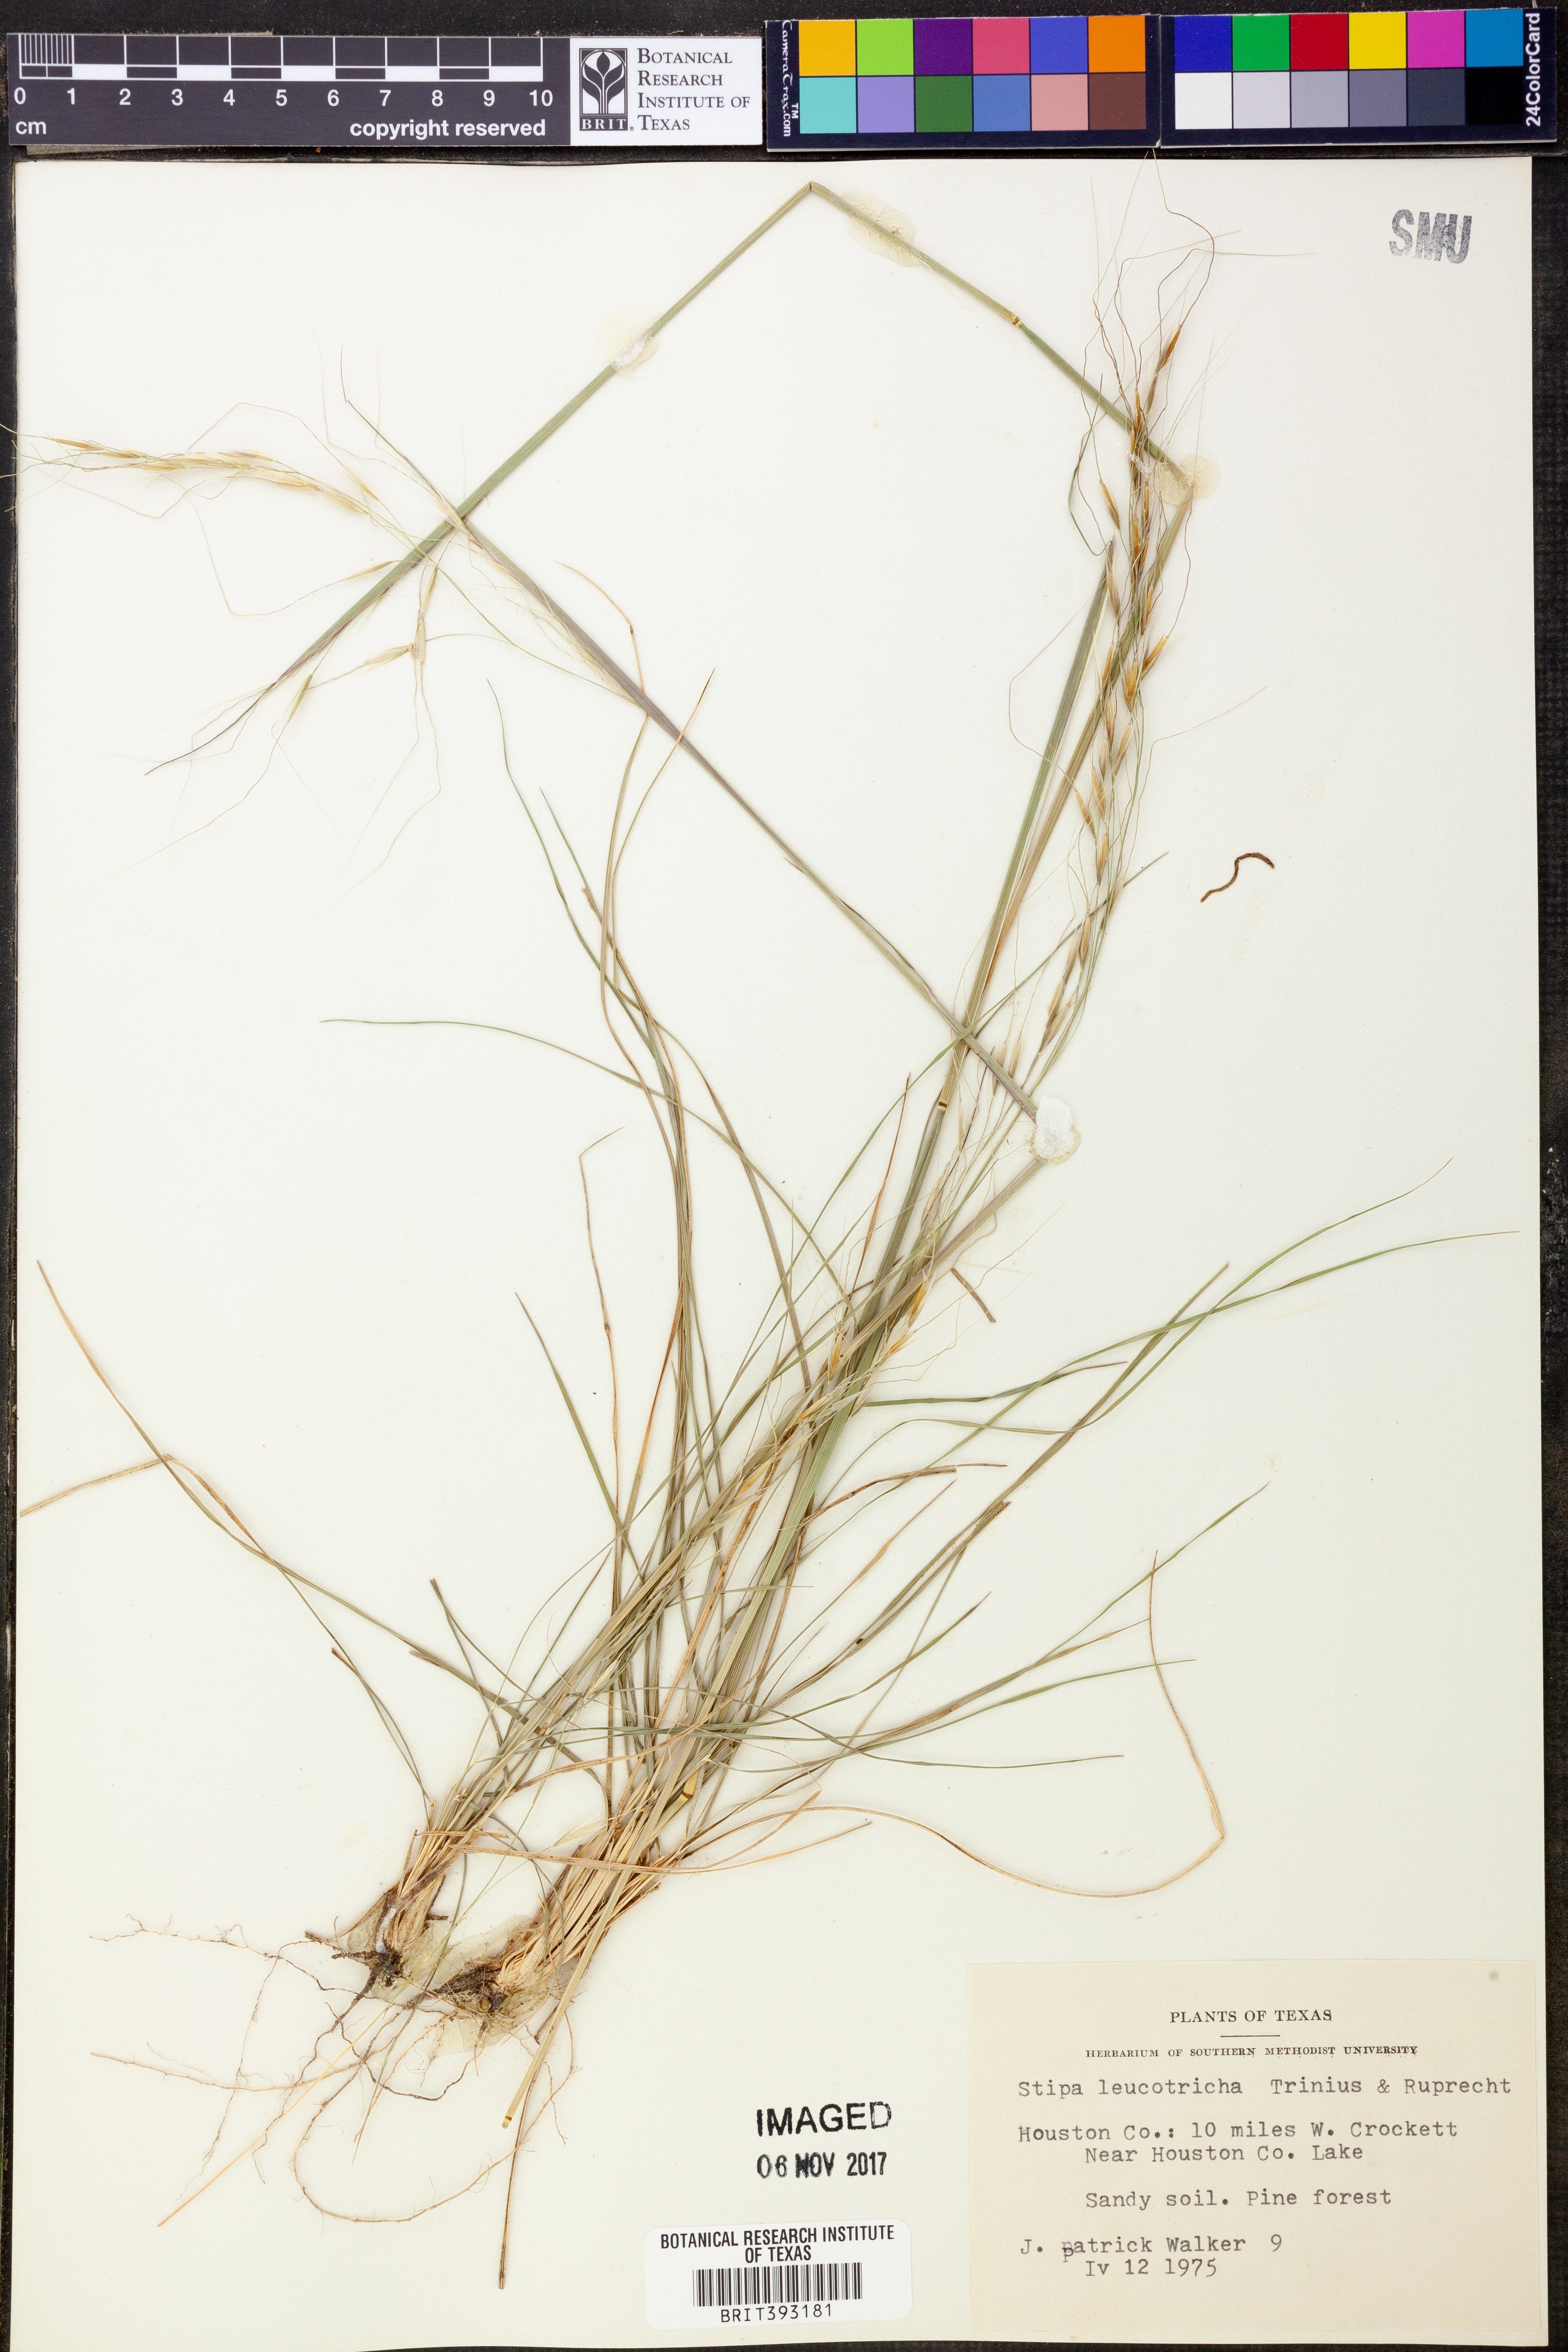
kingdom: Plantae
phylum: Tracheophyta
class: Liliopsida
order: Poales
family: Poaceae
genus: Nassella
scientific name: Nassella leucotricha
